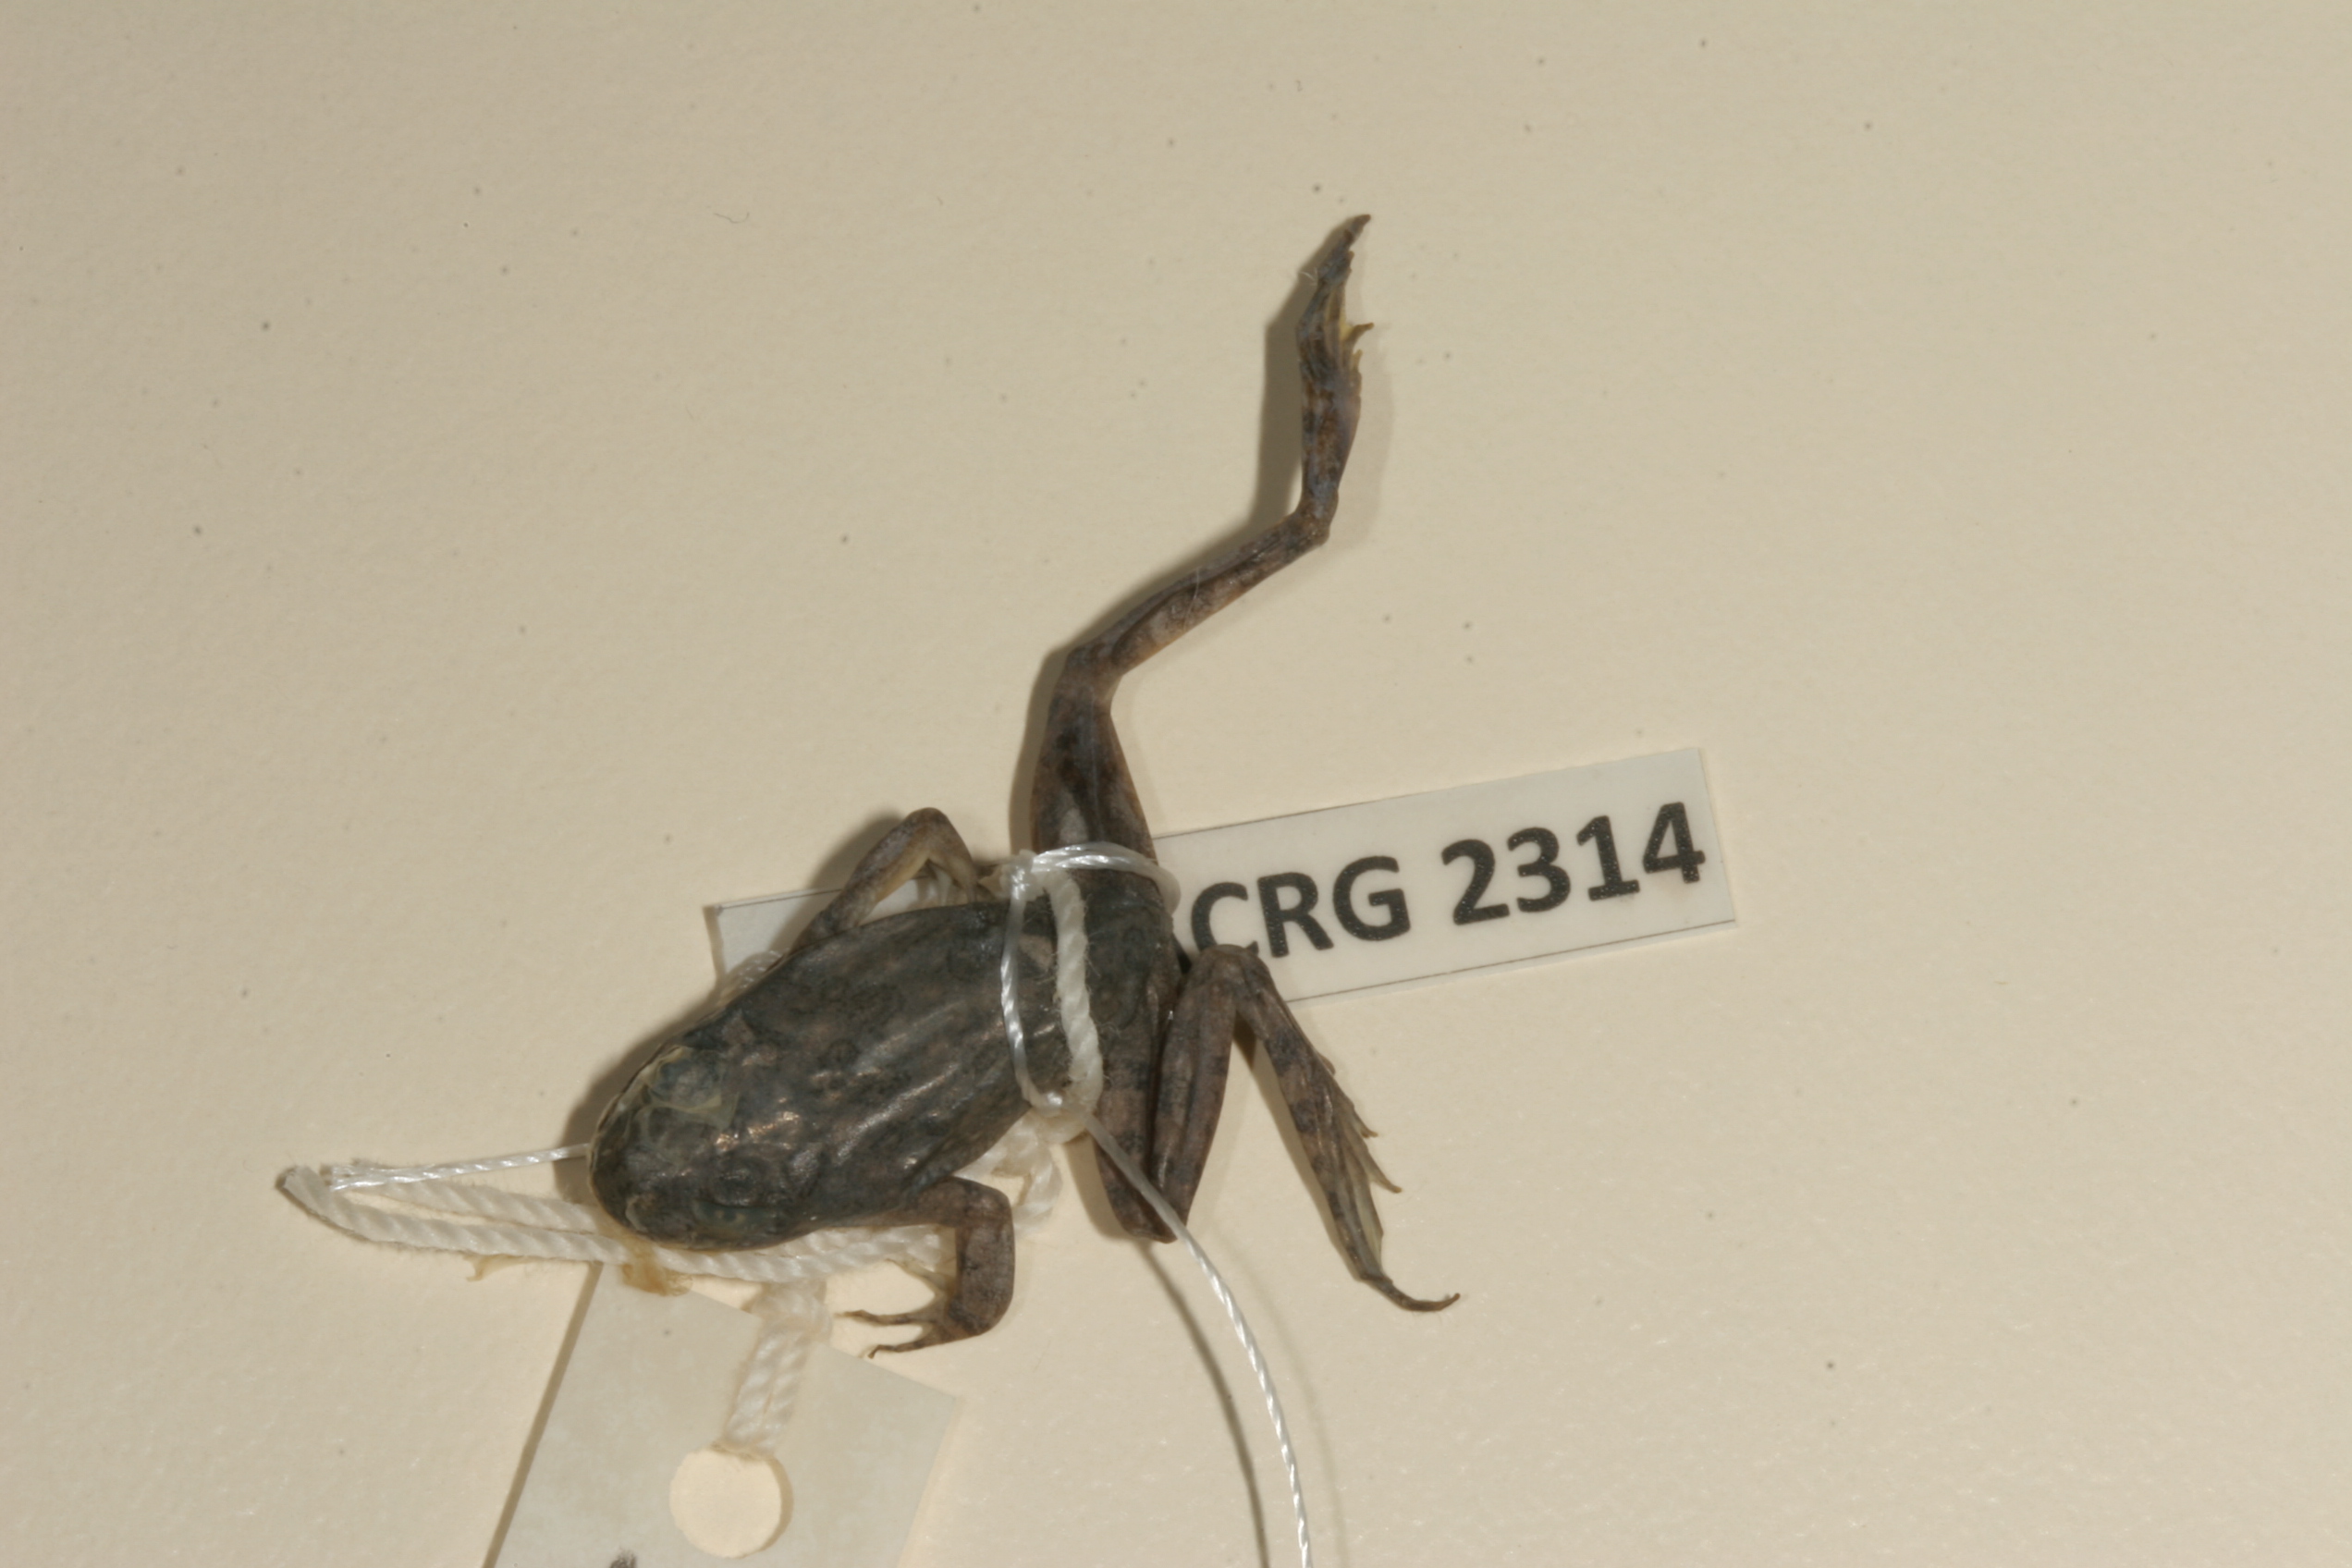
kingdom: Animalia
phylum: Chordata
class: Amphibia
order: Anura
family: Pyxicephalidae
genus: Amietia
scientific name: Amietia vertebralis
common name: Drakensberg stream frog
